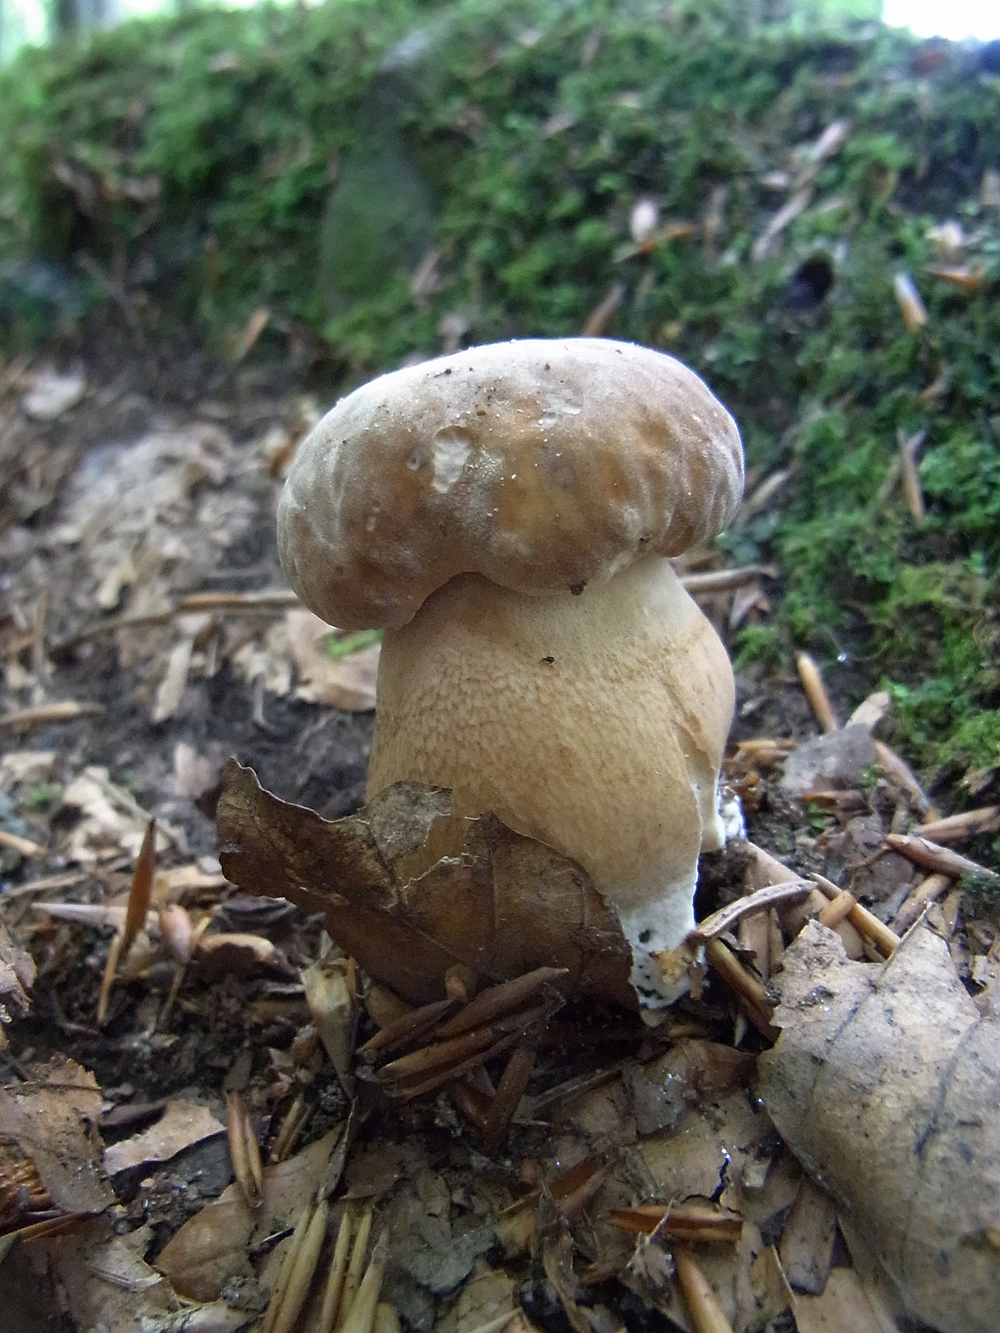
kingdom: Fungi
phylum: Basidiomycota
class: Agaricomycetes
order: Boletales
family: Boletaceae
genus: Boletus
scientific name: Boletus reticulatus
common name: Summer bolete
